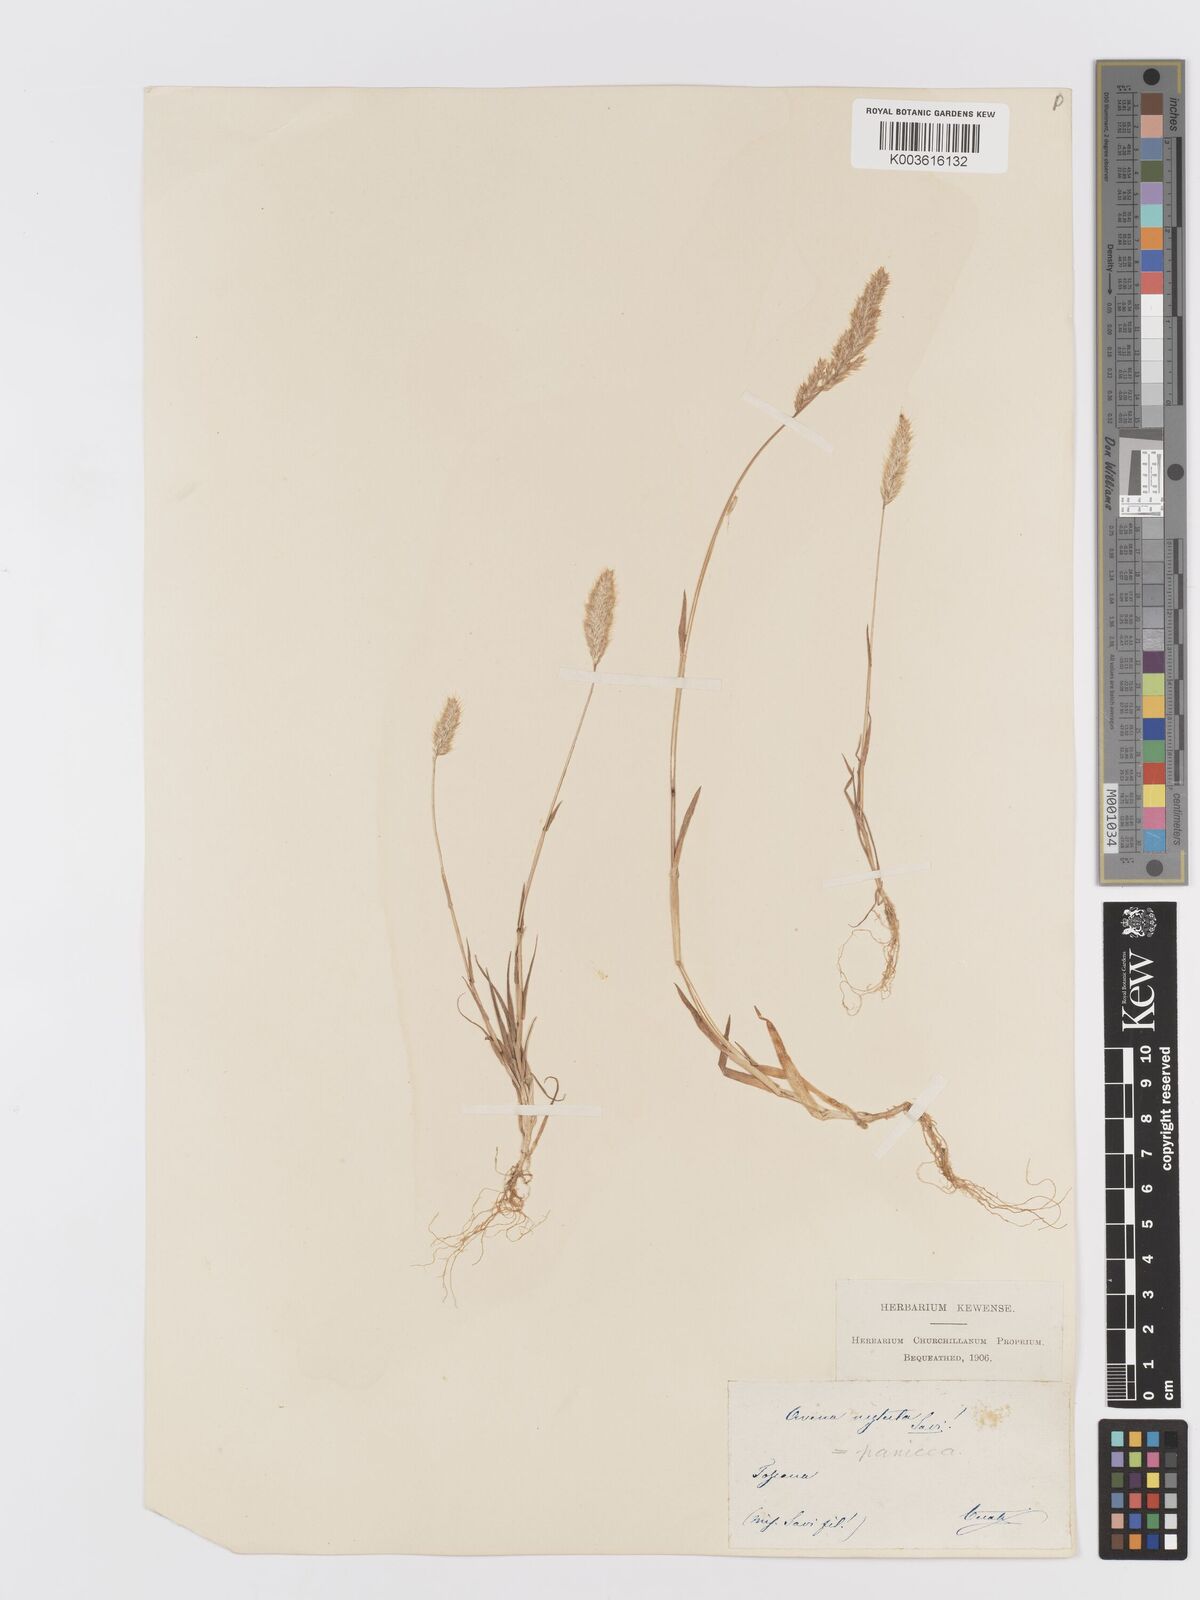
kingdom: Plantae
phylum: Tracheophyta
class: Liliopsida
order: Poales
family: Poaceae
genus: Trisetaria
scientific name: Trisetaria panicea
